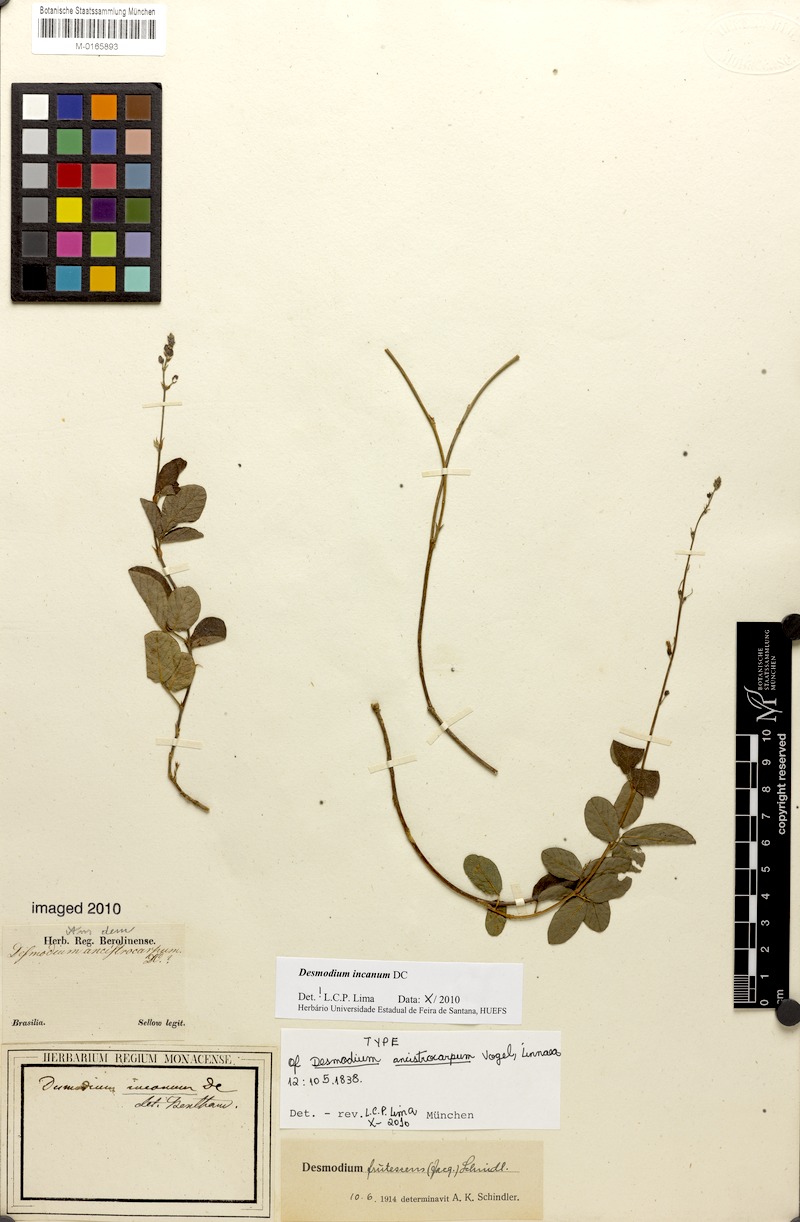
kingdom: Plantae
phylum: Tracheophyta
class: Magnoliopsida
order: Fabales
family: Fabaceae
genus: Desmodium
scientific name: Desmodium incanum
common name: Tickclover
